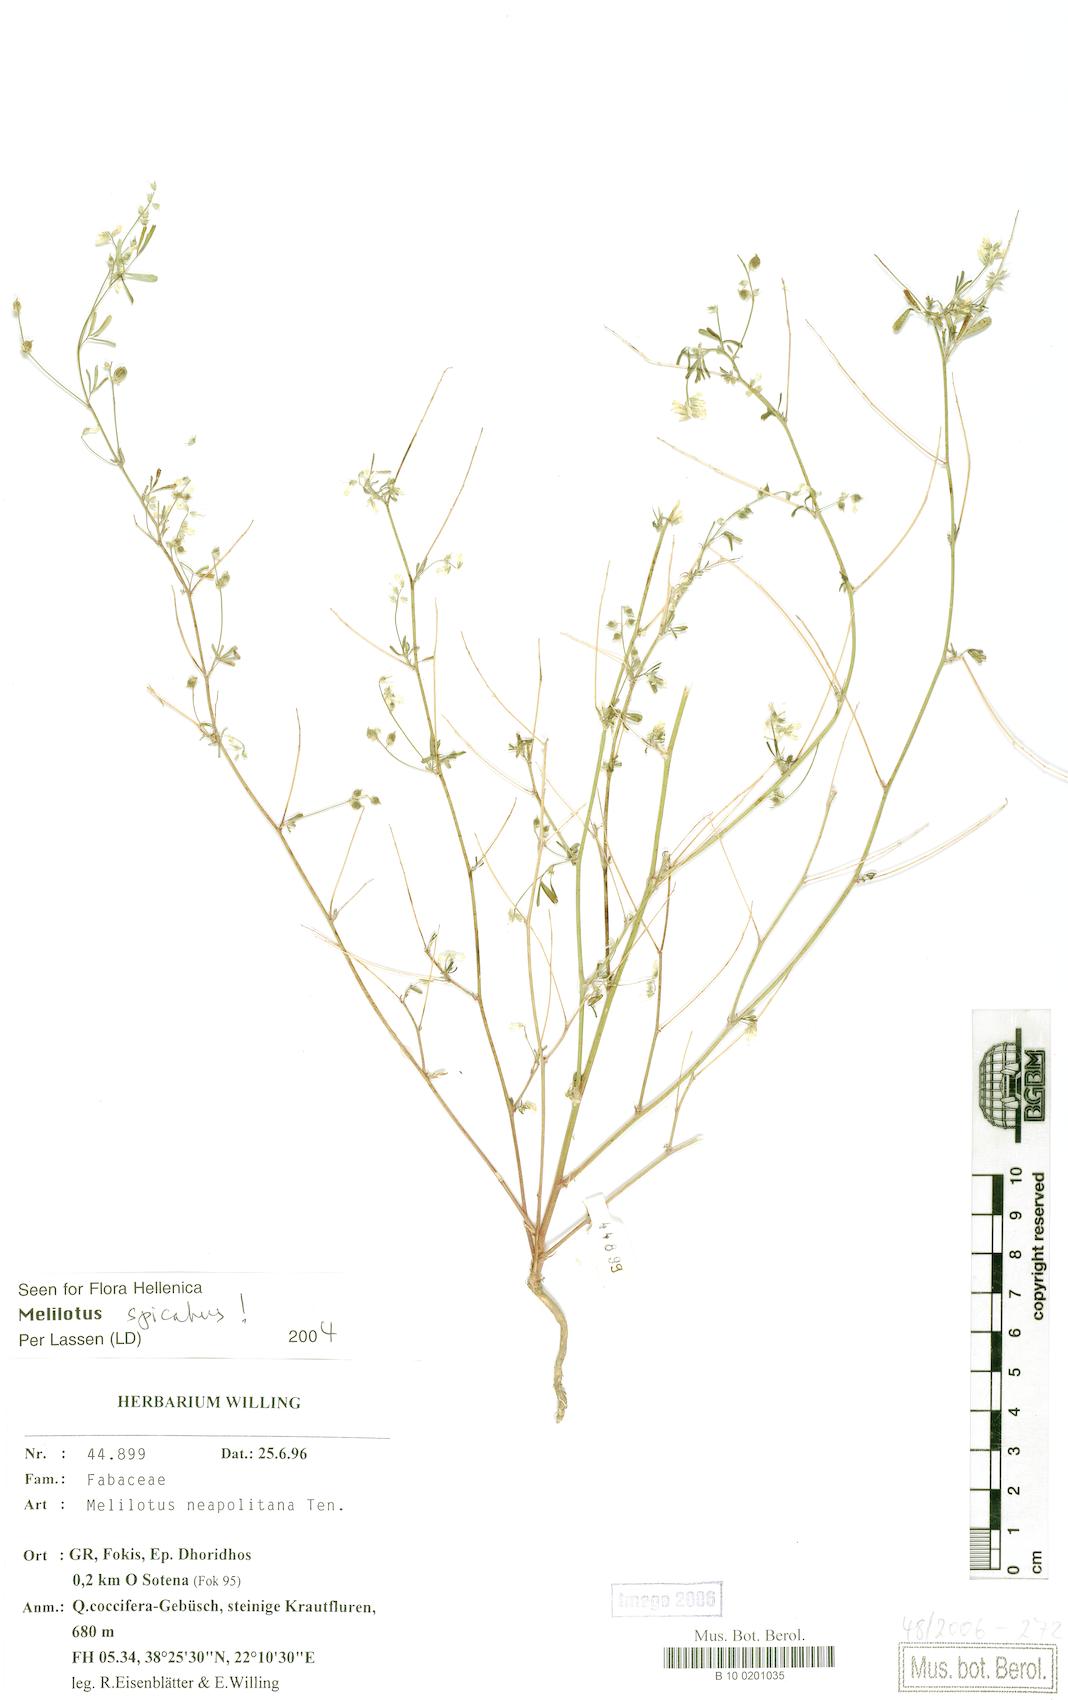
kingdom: Plantae
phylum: Tracheophyta
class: Magnoliopsida
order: Fabales
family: Fabaceae
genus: Melilotus
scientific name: Melilotus neapolitanus
